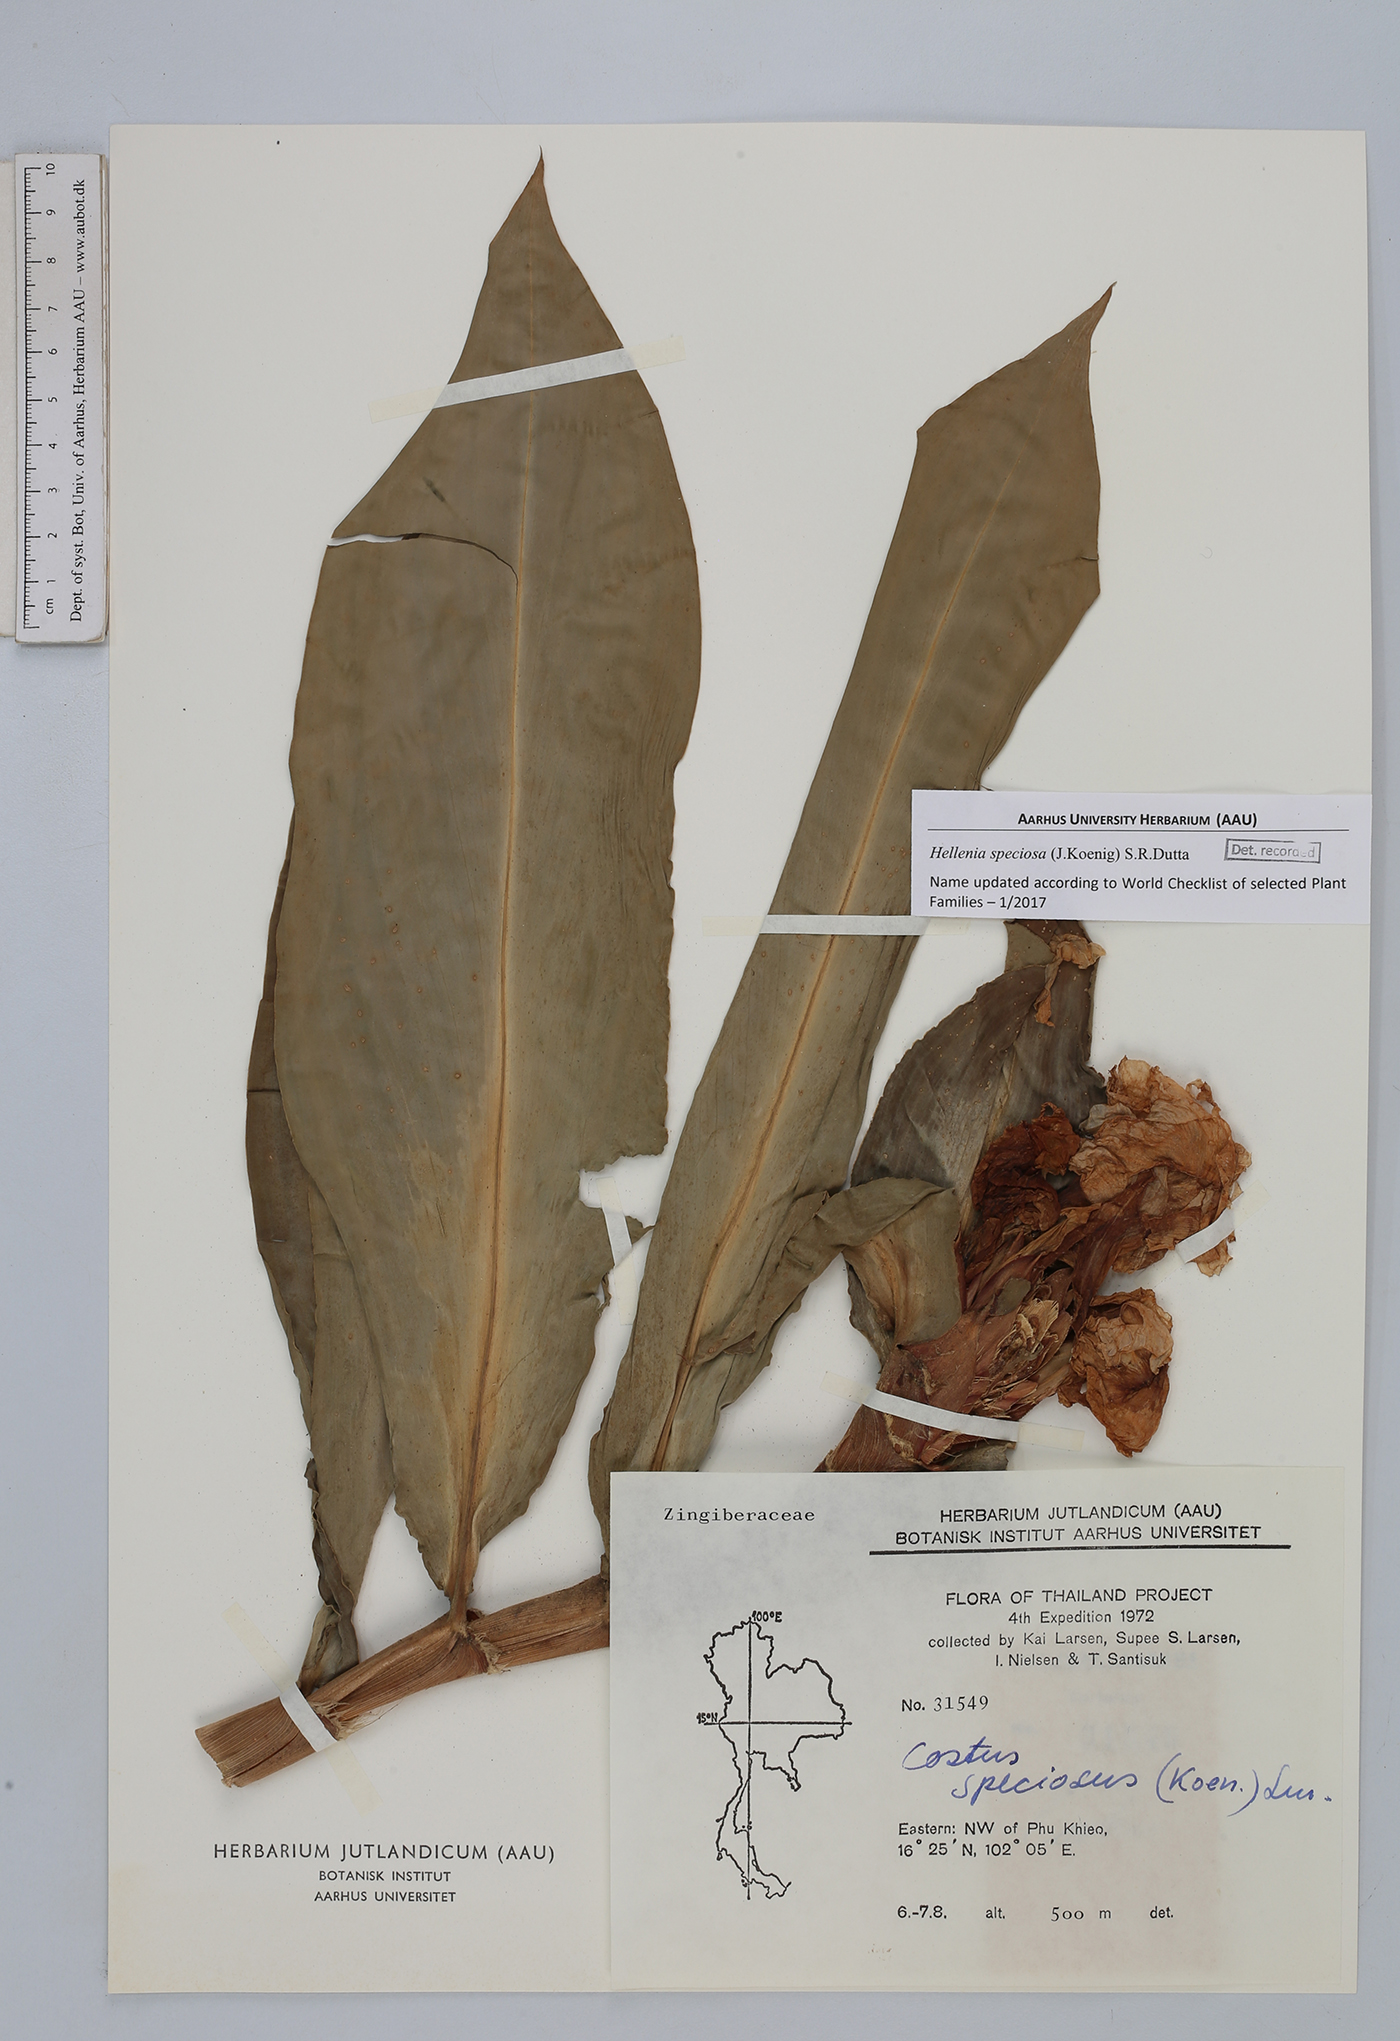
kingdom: Plantae
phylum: Tracheophyta
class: Liliopsida
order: Zingiberales
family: Costaceae
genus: Hellenia
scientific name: Hellenia speciosa
